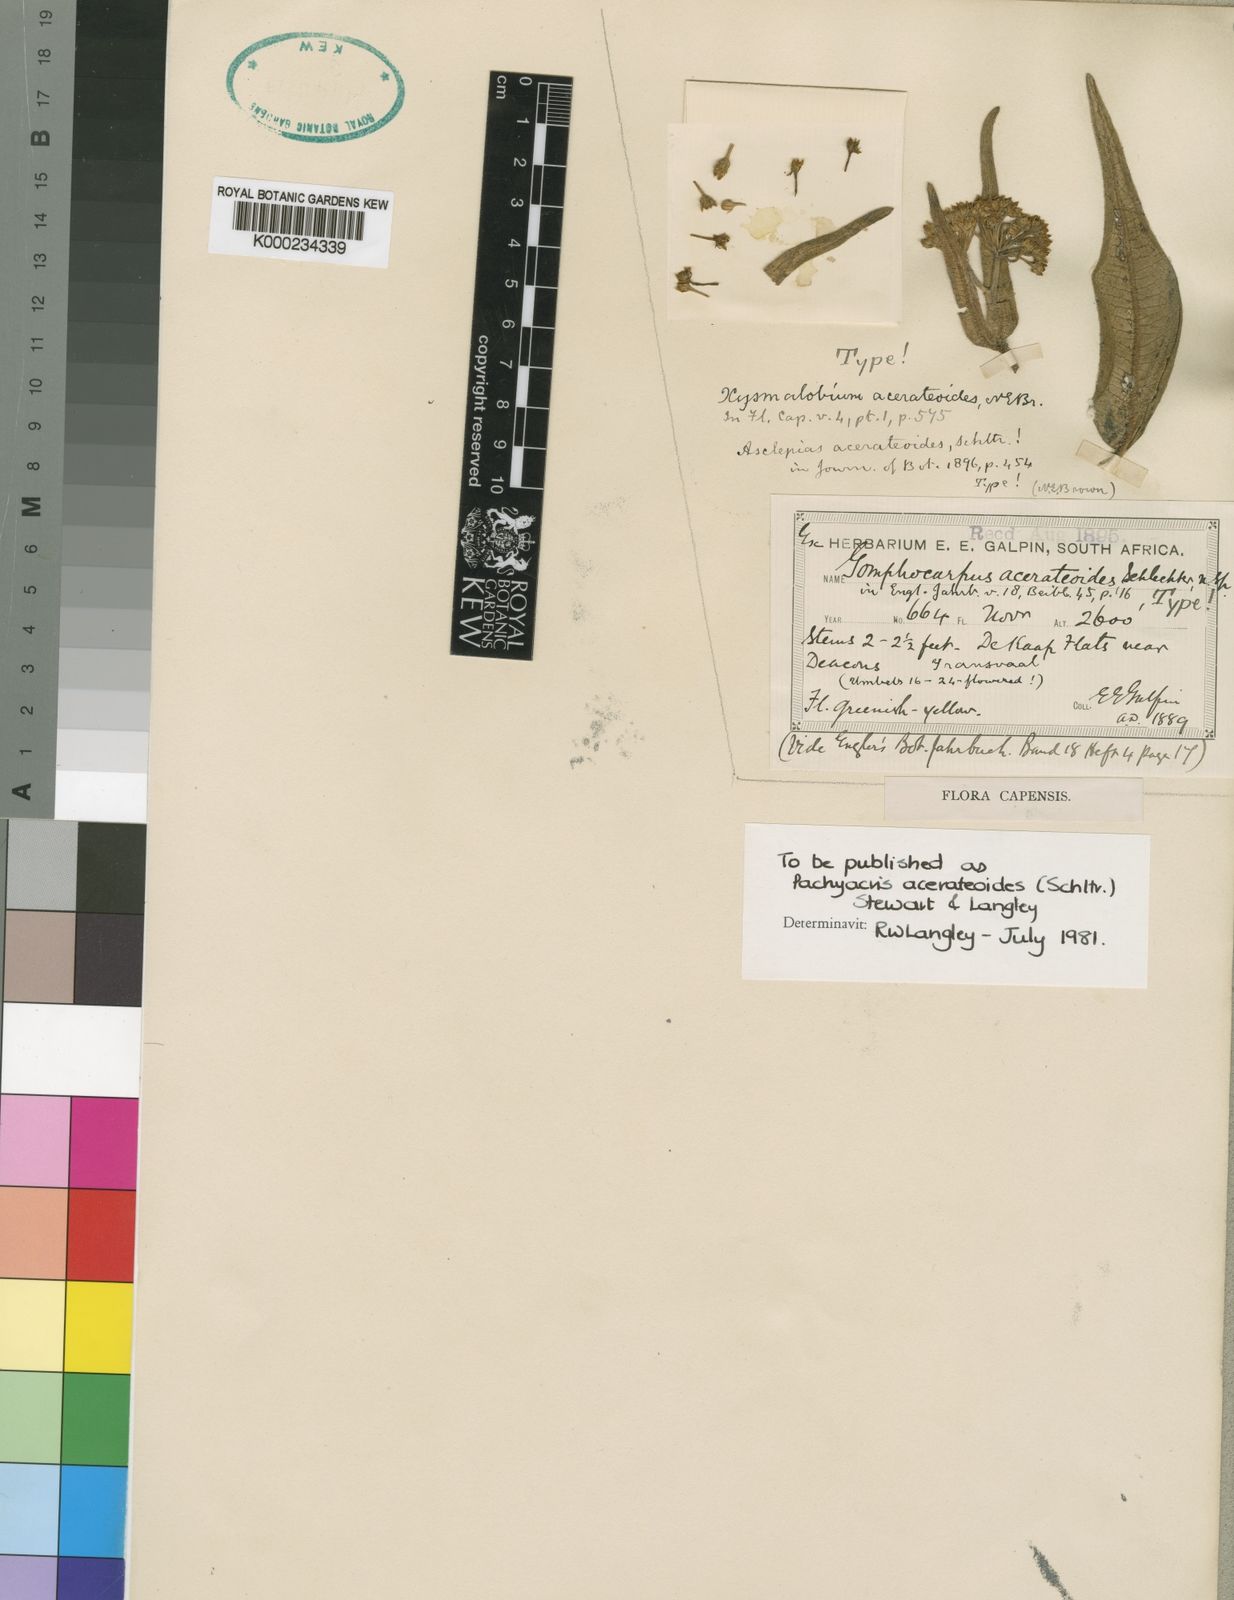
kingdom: Plantae
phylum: Tracheophyta
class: Magnoliopsida
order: Gentianales
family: Apocynaceae
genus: Xysmalobium
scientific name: Xysmalobium acerateoides
